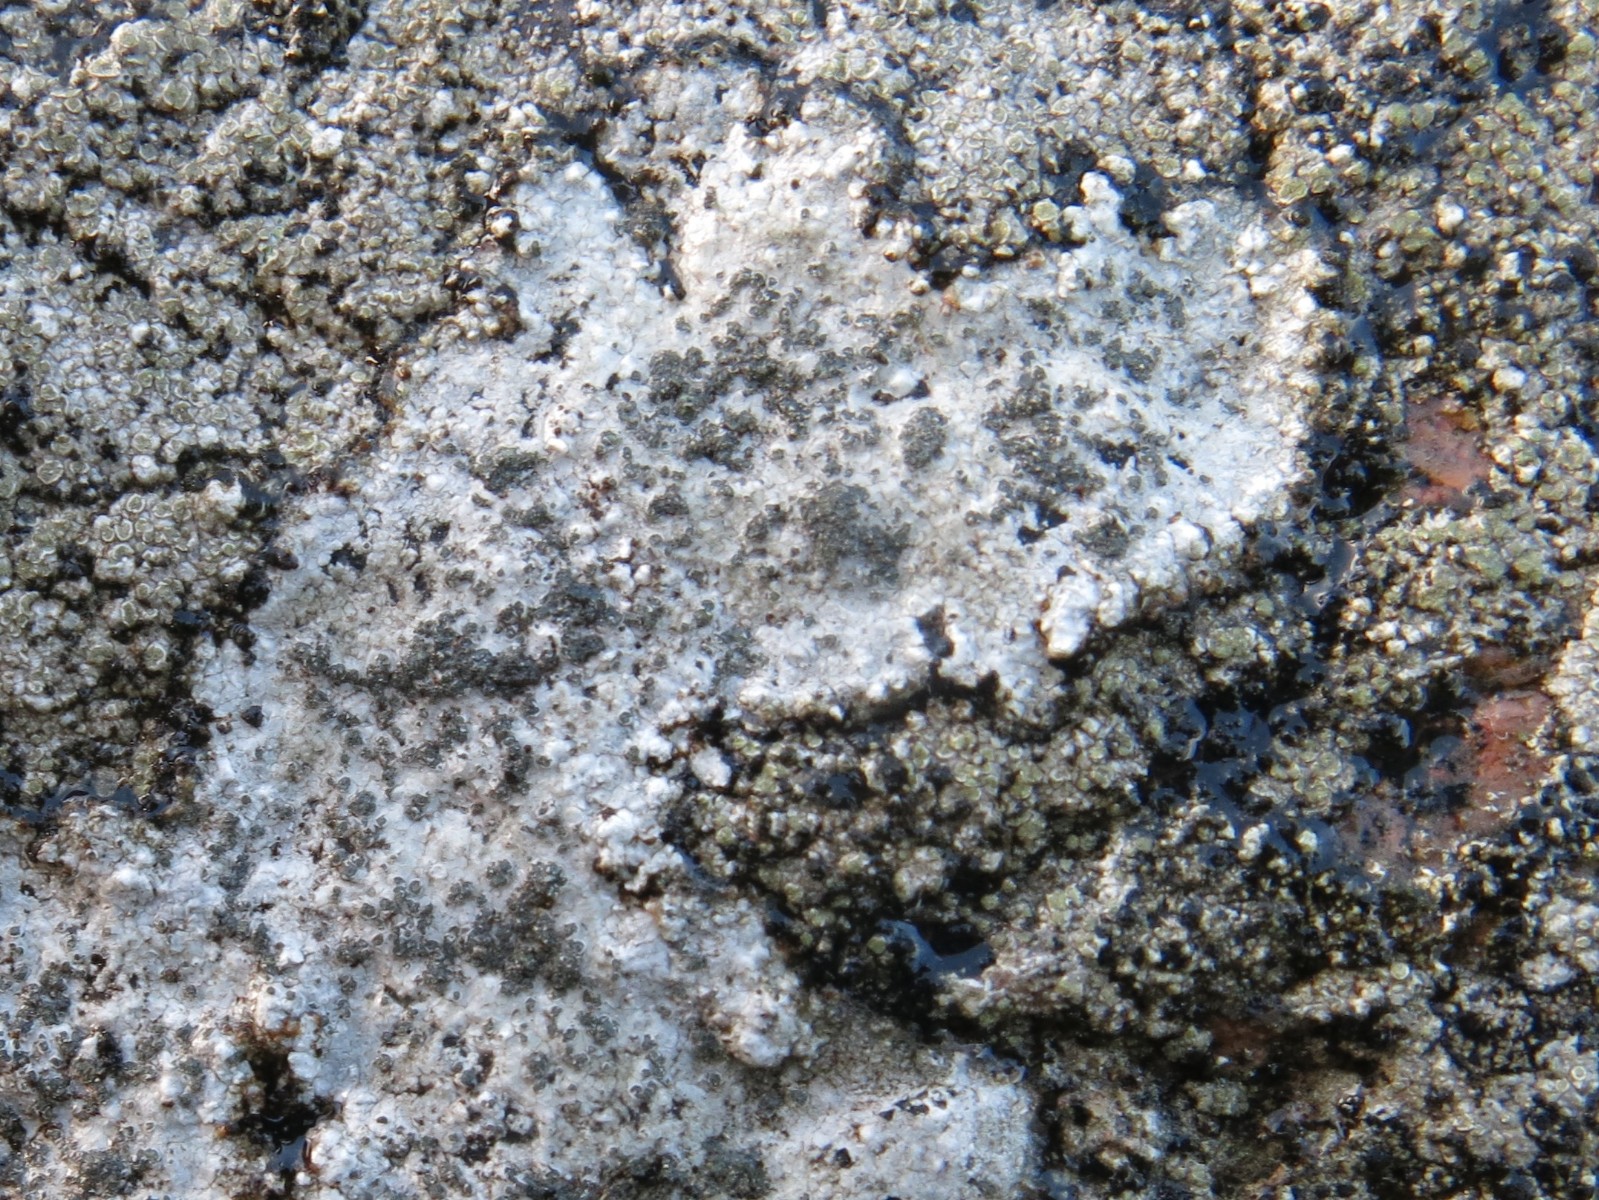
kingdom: Fungi
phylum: Ascomycota
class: Lecanoromycetes
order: Lecideales
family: Lecideaceae
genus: Porpidia
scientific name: Porpidia soredizodes
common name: sortkornet bredskivelav
